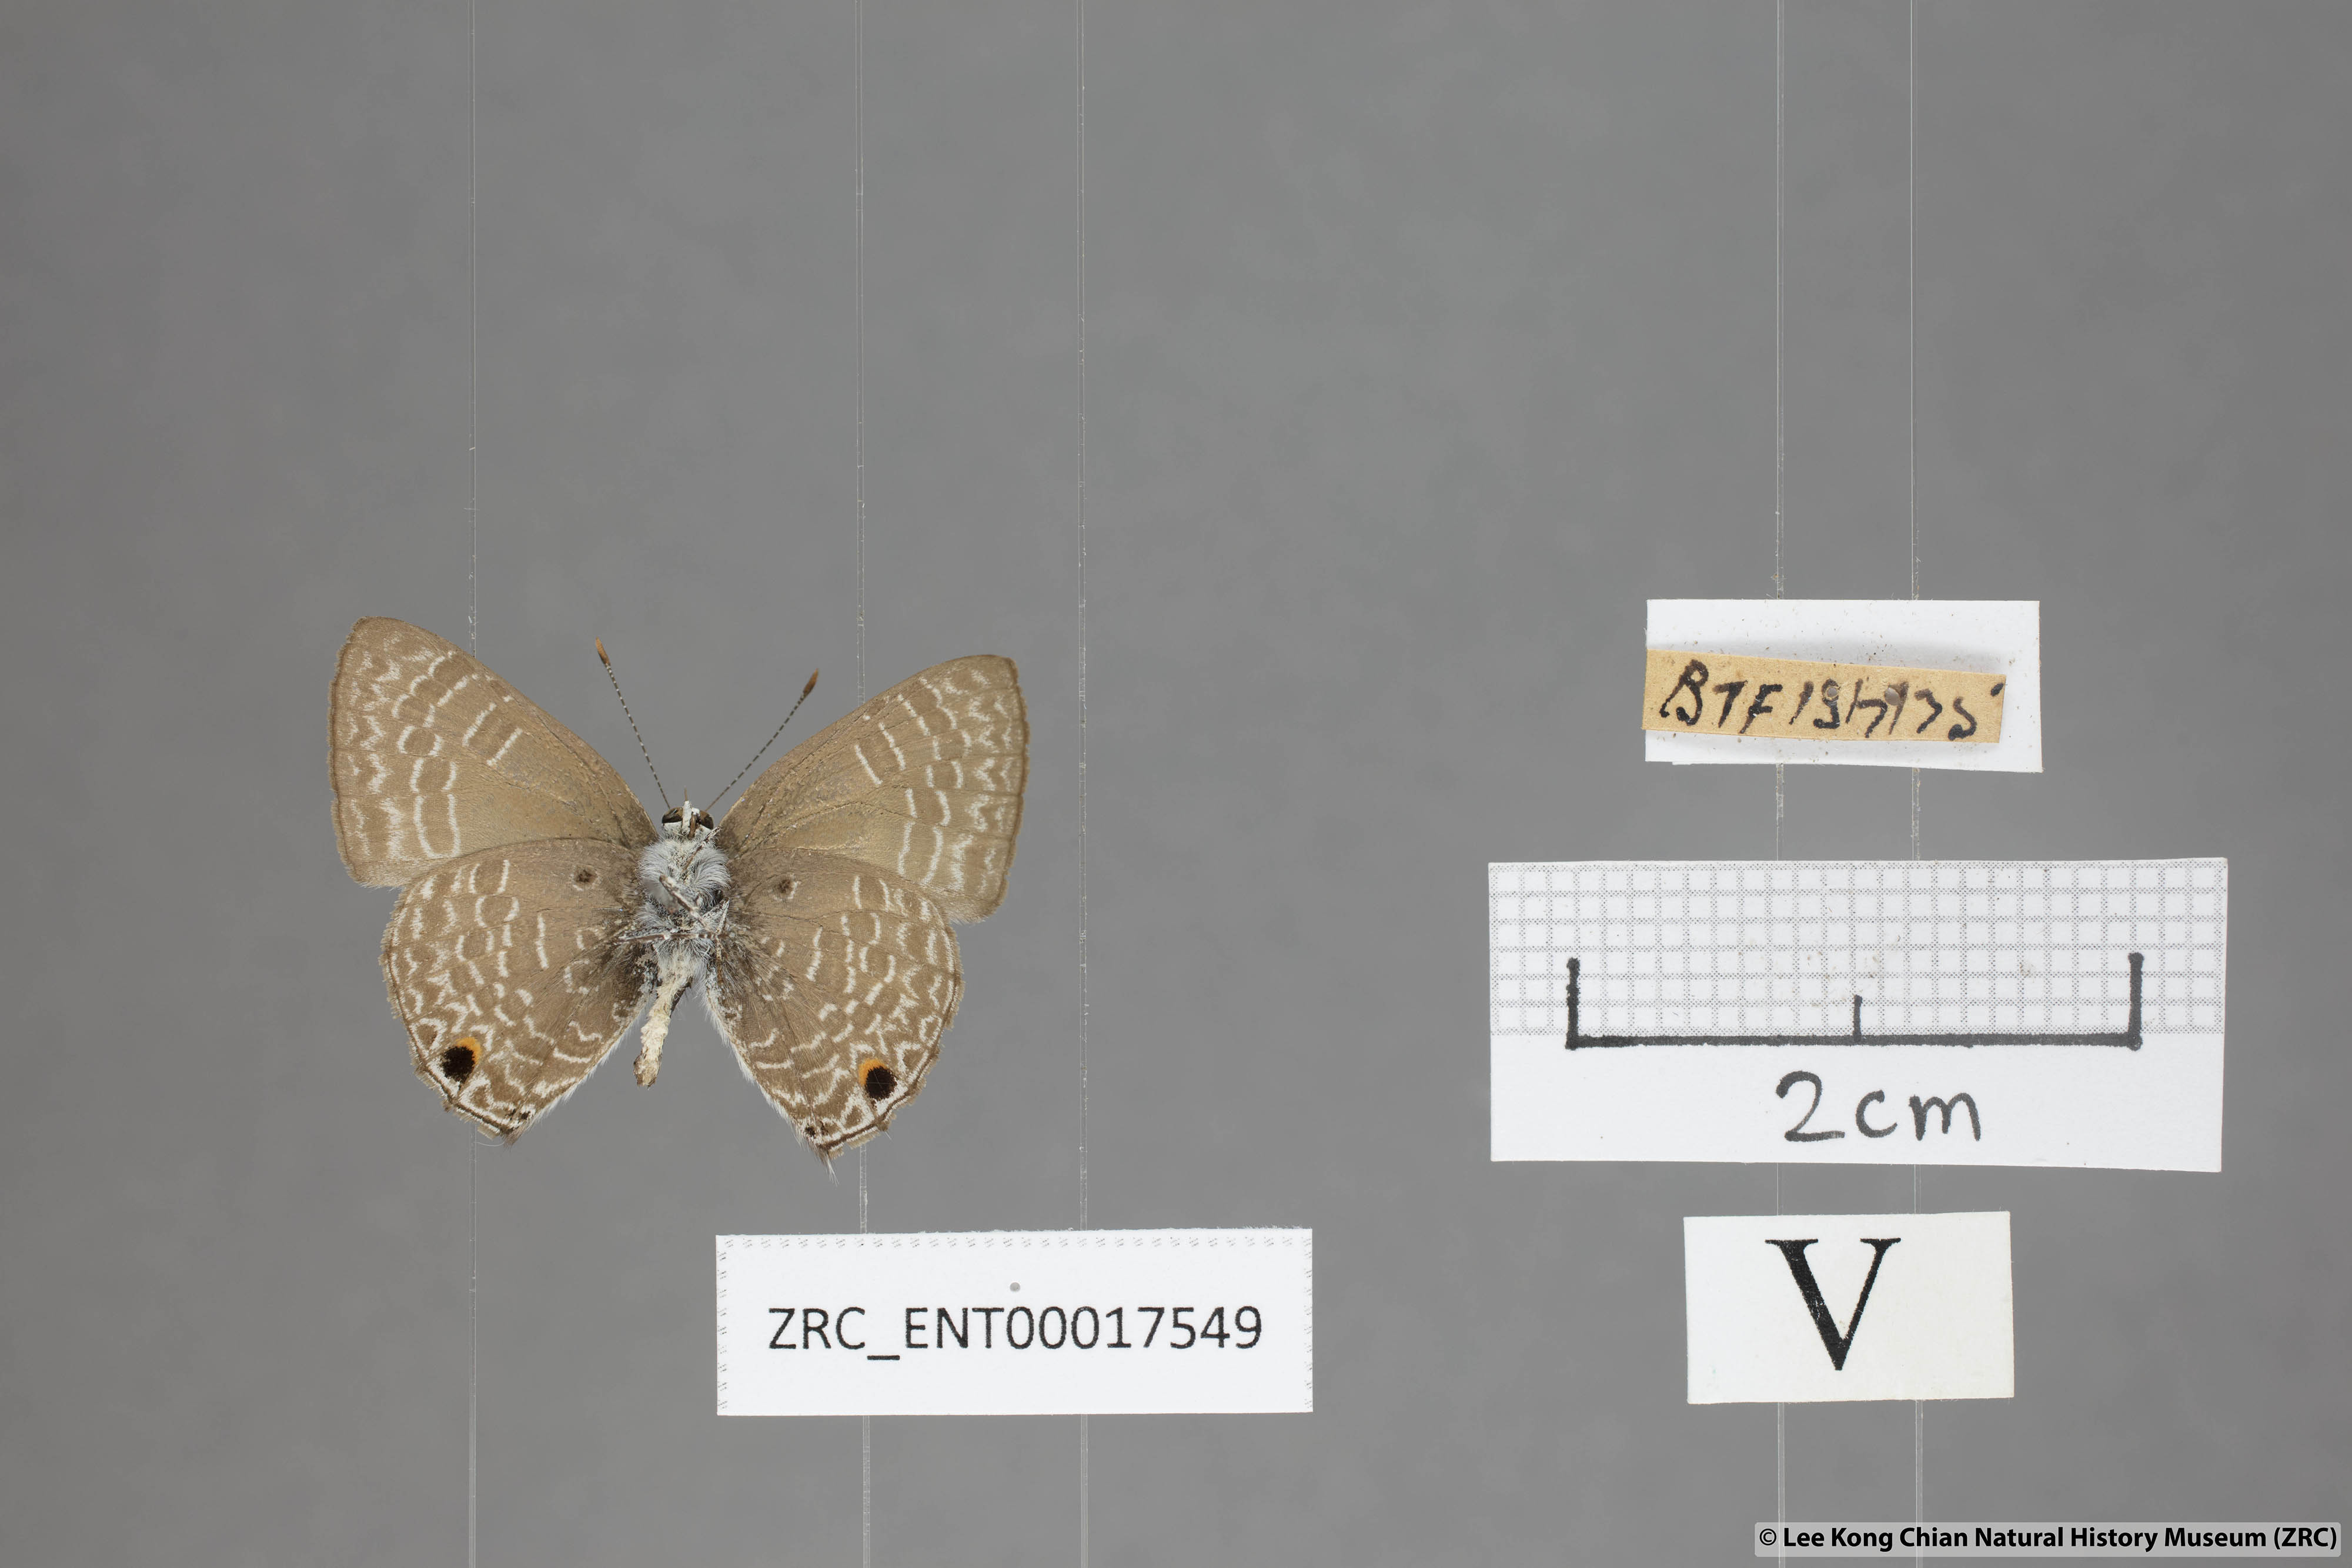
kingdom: Animalia
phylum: Arthropoda
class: Insecta
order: Lepidoptera
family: Lycaenidae
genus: Anthene
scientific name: Anthene lycaenoides
